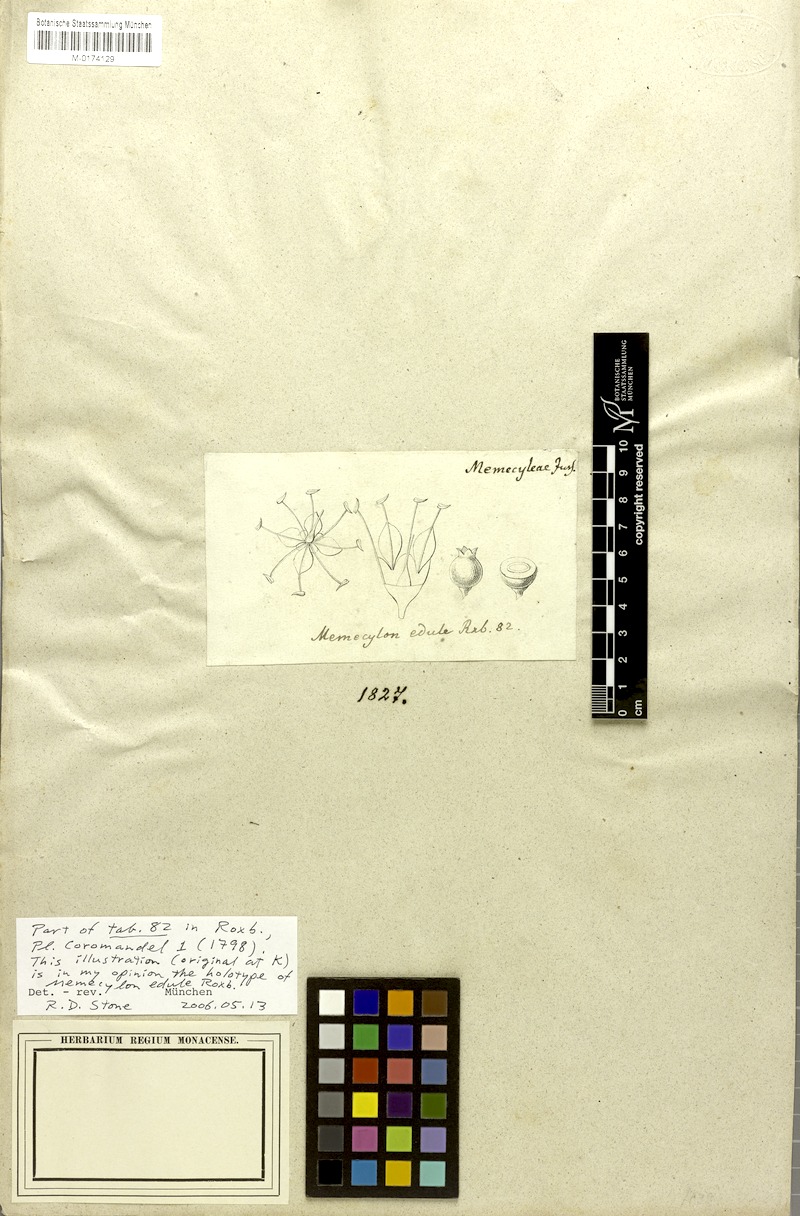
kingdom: Plantae
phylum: Tracheophyta
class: Magnoliopsida
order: Myrtales
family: Melastomataceae
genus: Memecylon
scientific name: Memecylon edule
